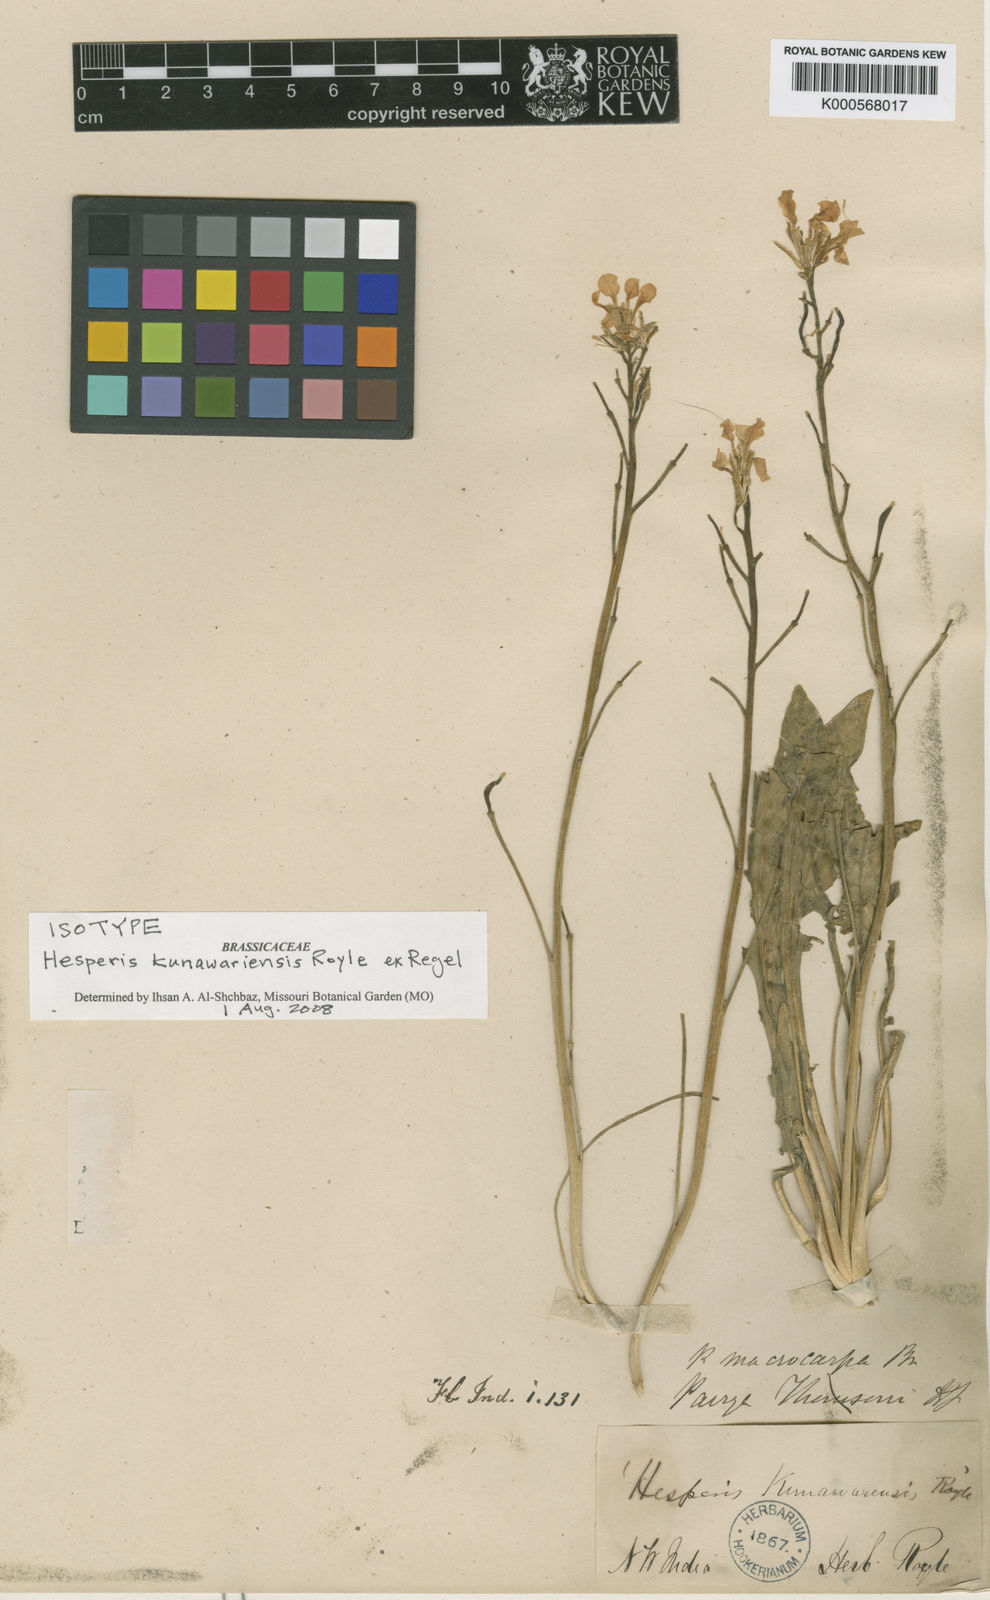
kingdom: Plantae
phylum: Tracheophyta
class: Magnoliopsida
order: Brassicales
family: Brassicaceae
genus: Hesperis
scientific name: Hesperis
